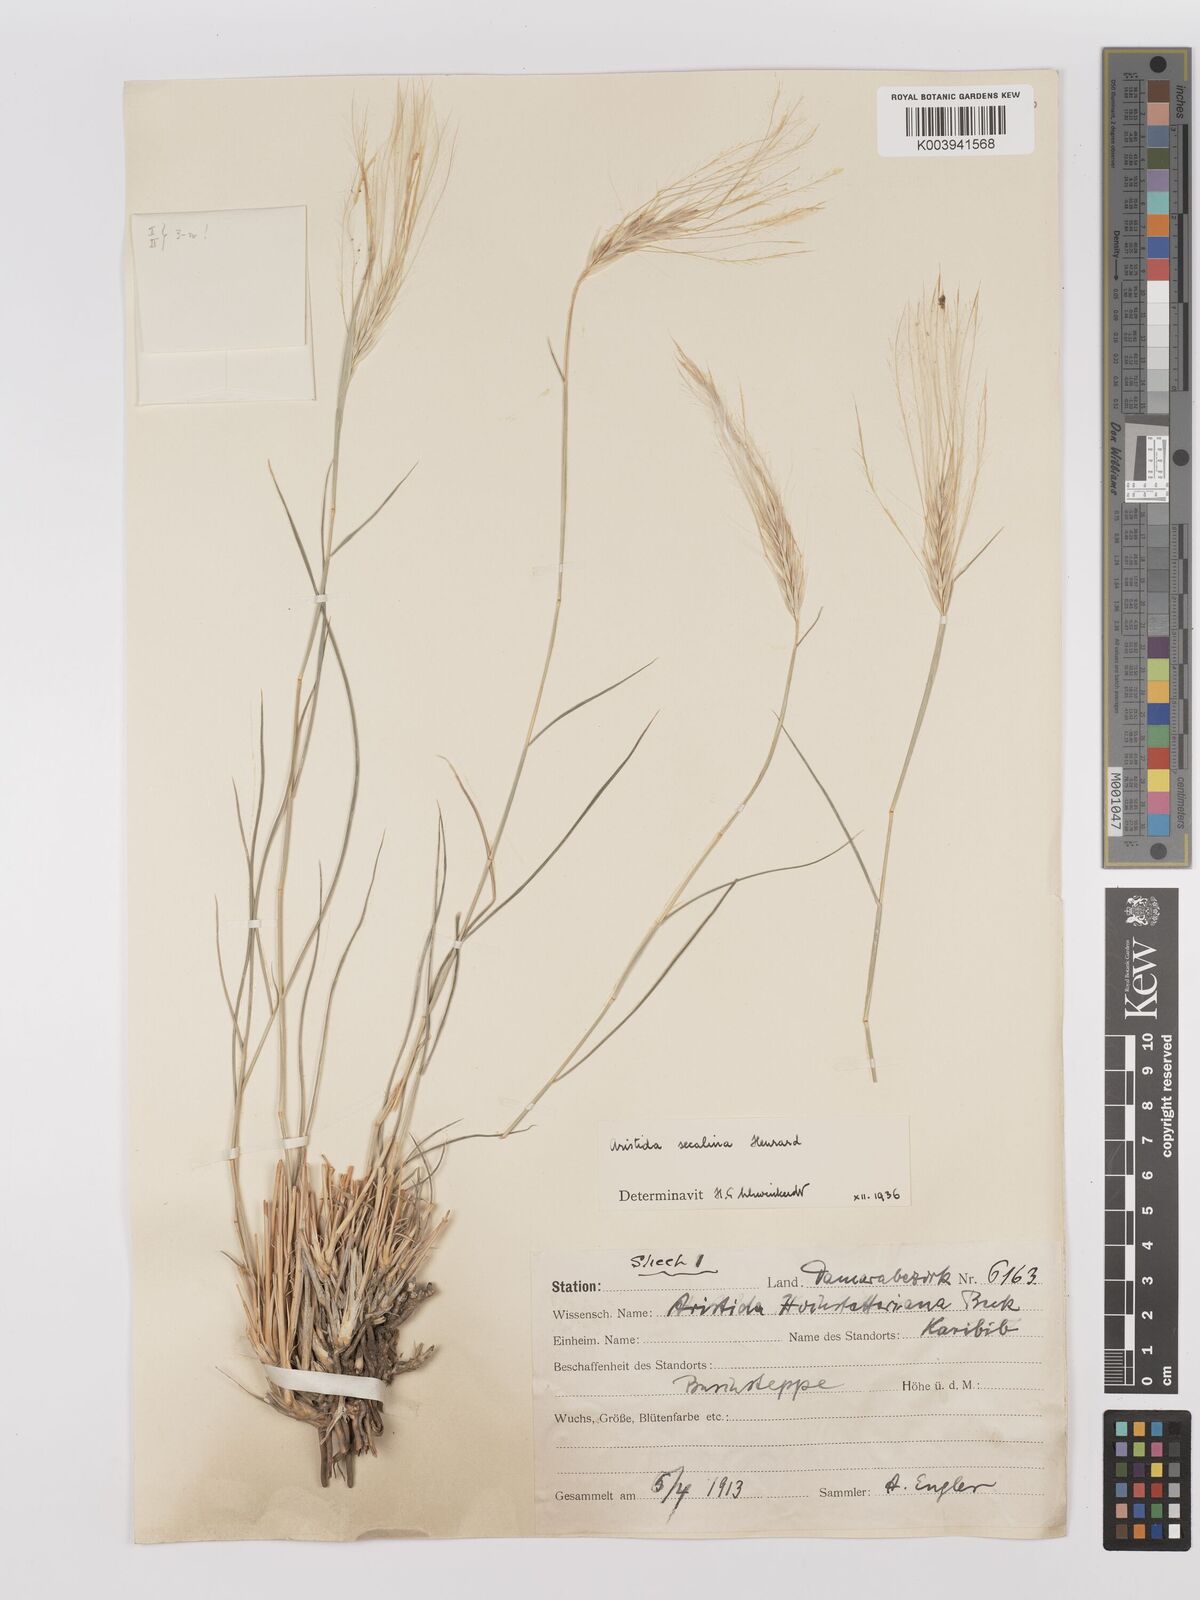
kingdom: Plantae
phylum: Tracheophyta
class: Liliopsida
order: Poales
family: Poaceae
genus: Stipagrostis
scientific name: Stipagrostis hochstetteriana
